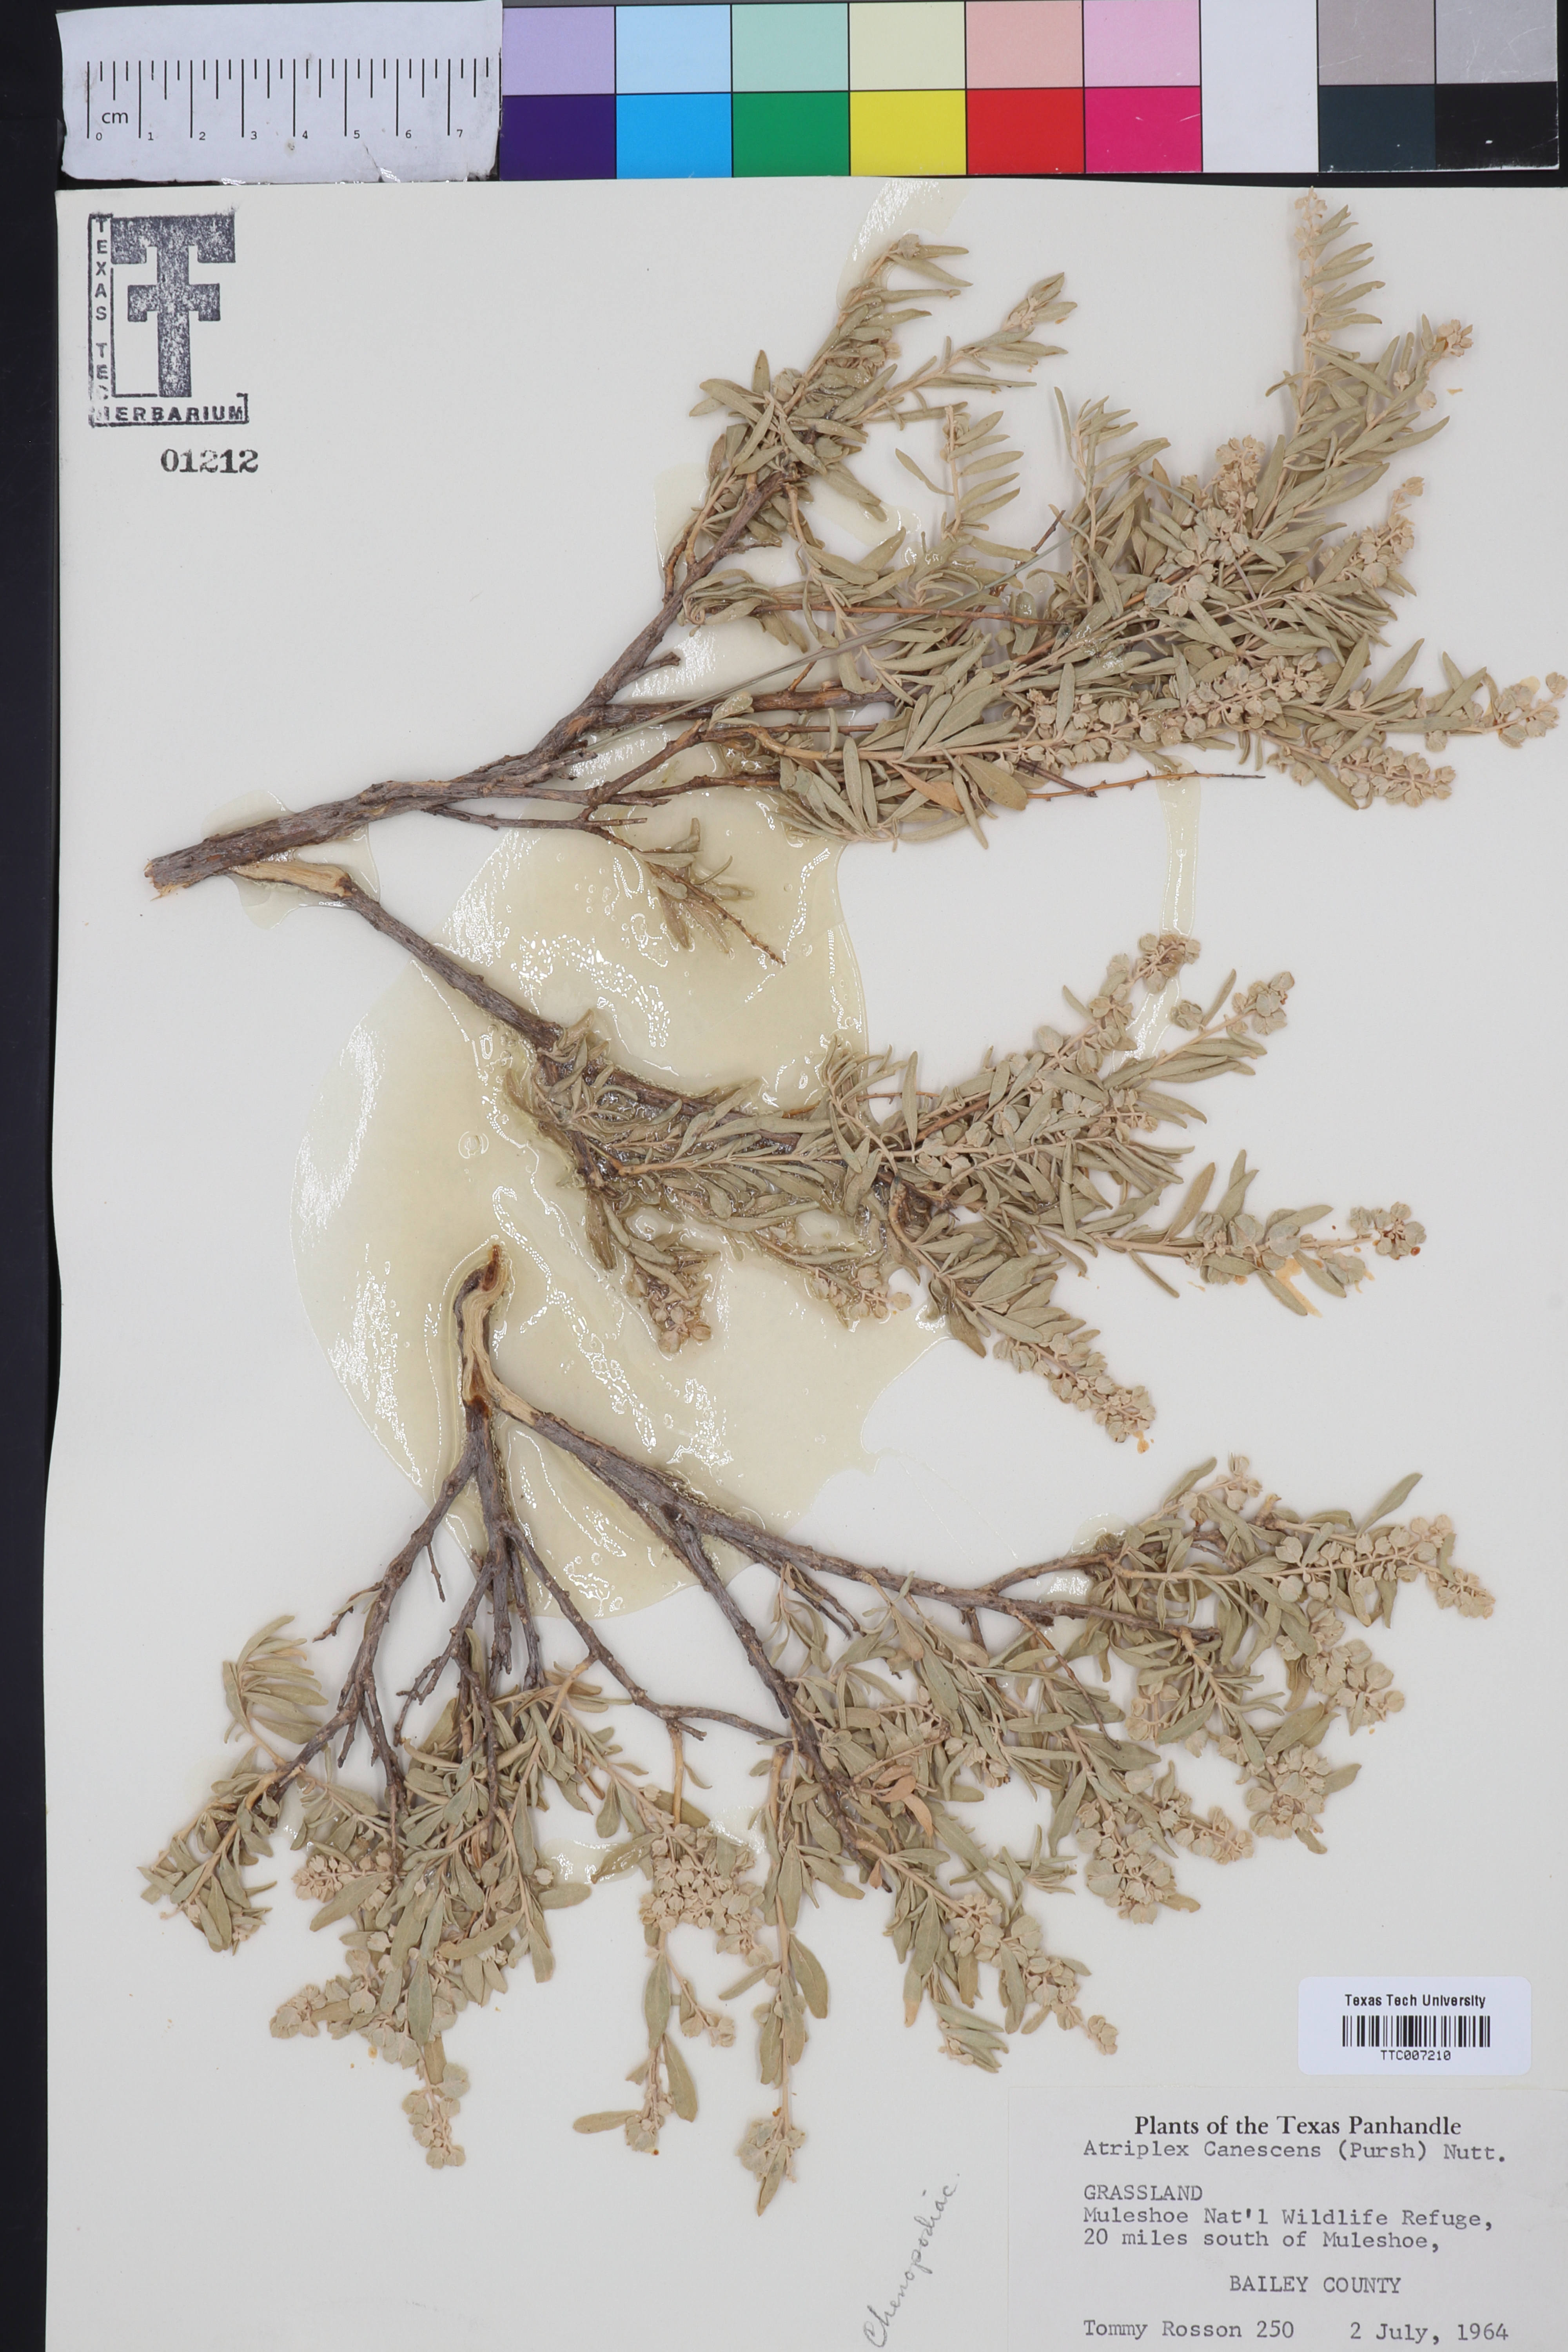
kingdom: Plantae
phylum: Tracheophyta
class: Magnoliopsida
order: Caryophyllales
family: Amaranthaceae
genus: Atriplex
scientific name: Atriplex canescens
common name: Four-wing saltbush
